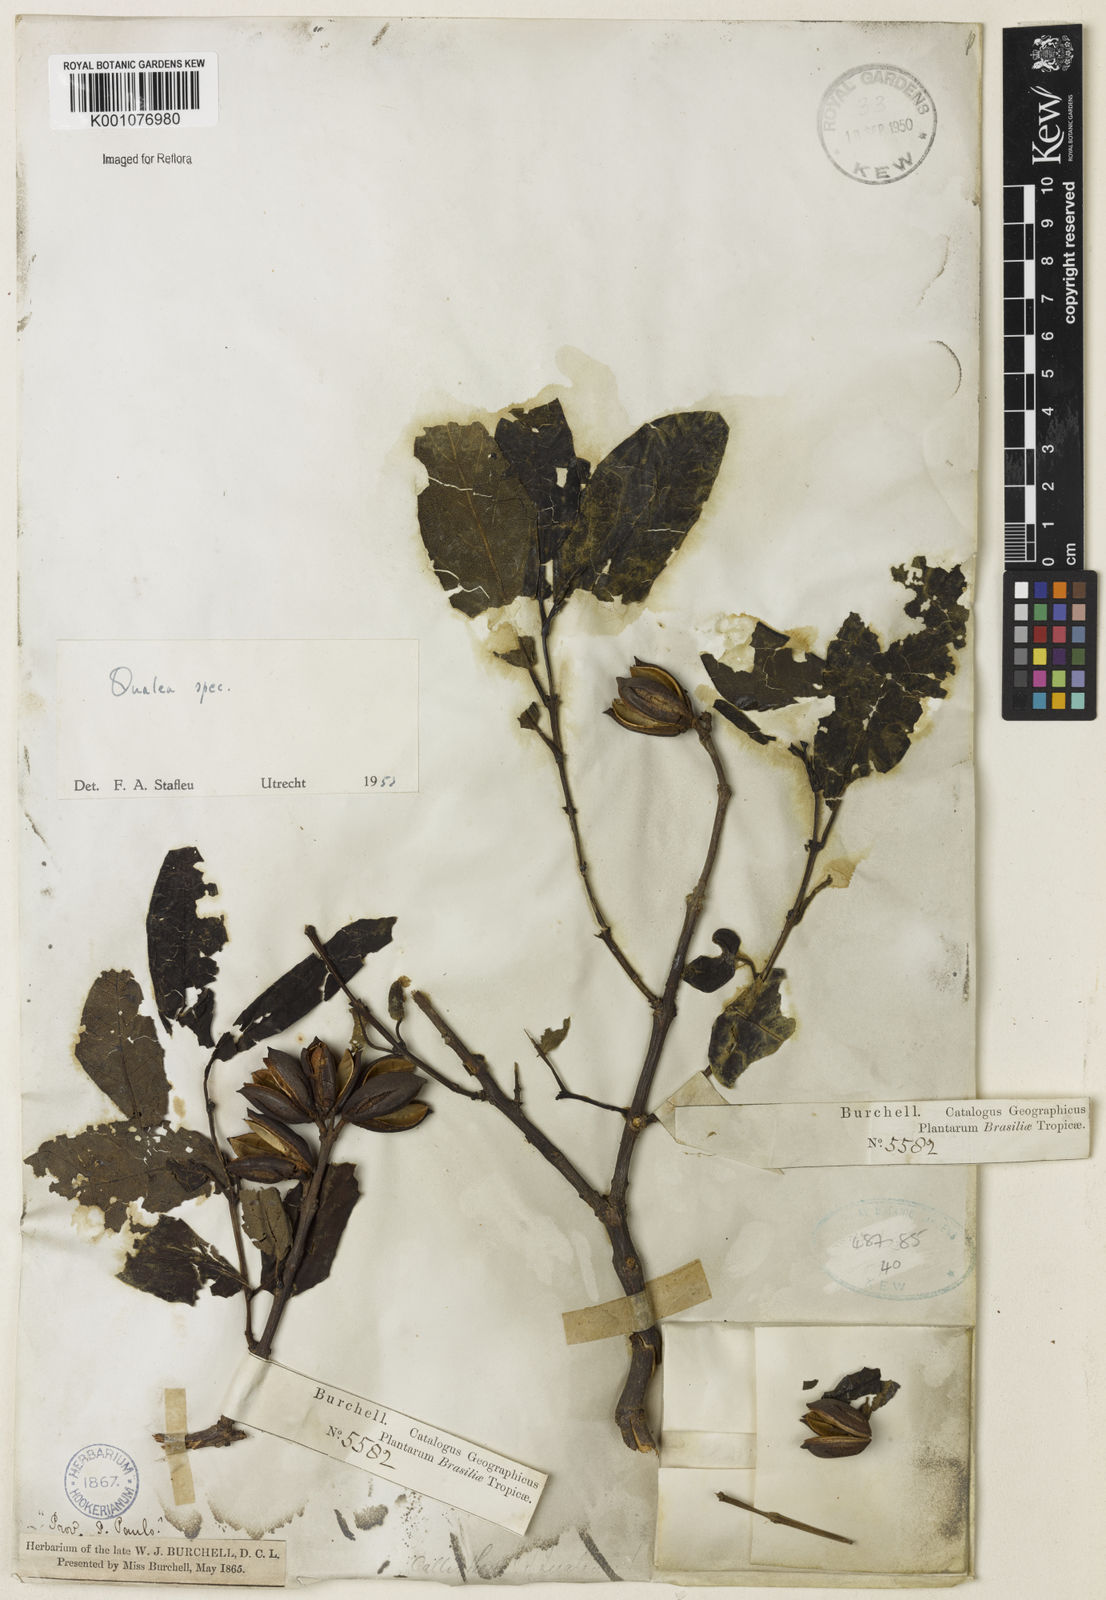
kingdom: Plantae
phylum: Tracheophyta
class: Magnoliopsida
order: Myrtales
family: Vochysiaceae
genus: Qualea
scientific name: Qualea
